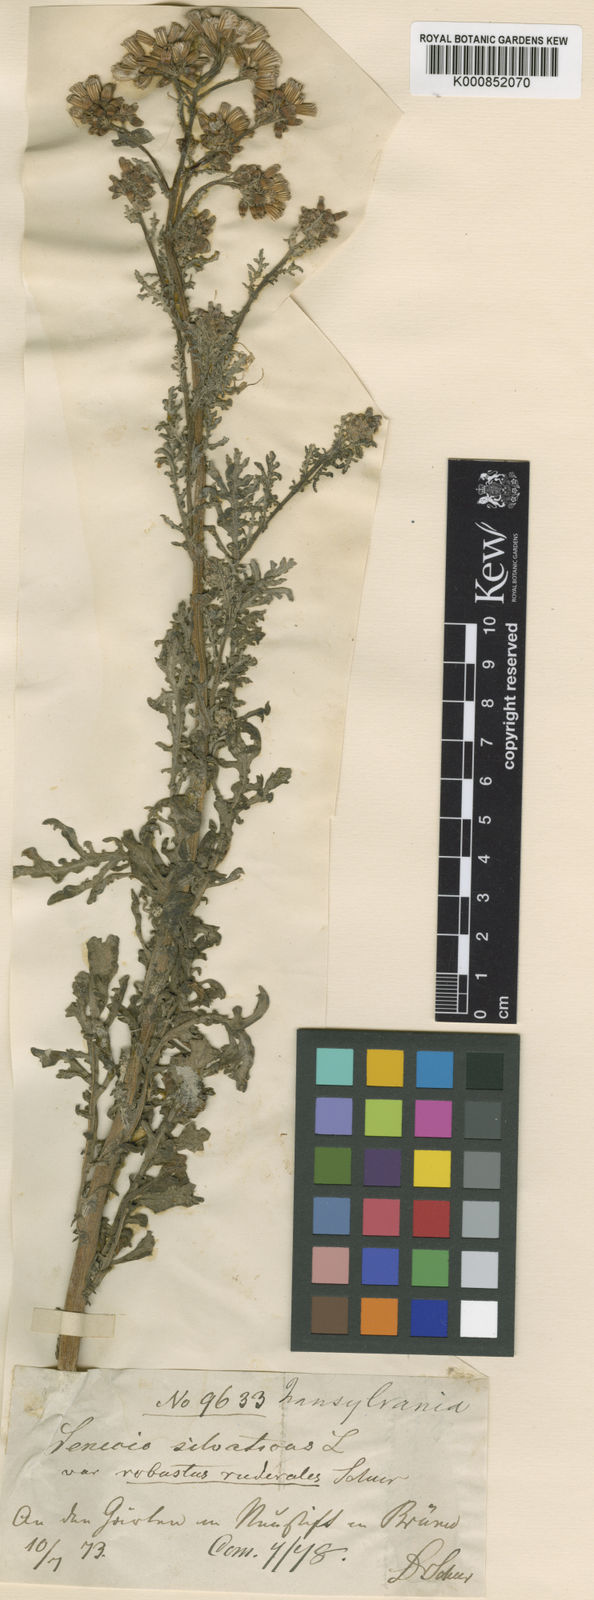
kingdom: Plantae
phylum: Tracheophyta
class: Magnoliopsida
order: Asterales
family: Asteraceae
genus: Senecio
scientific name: Senecio sylvaticus
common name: Woodland ragwort
